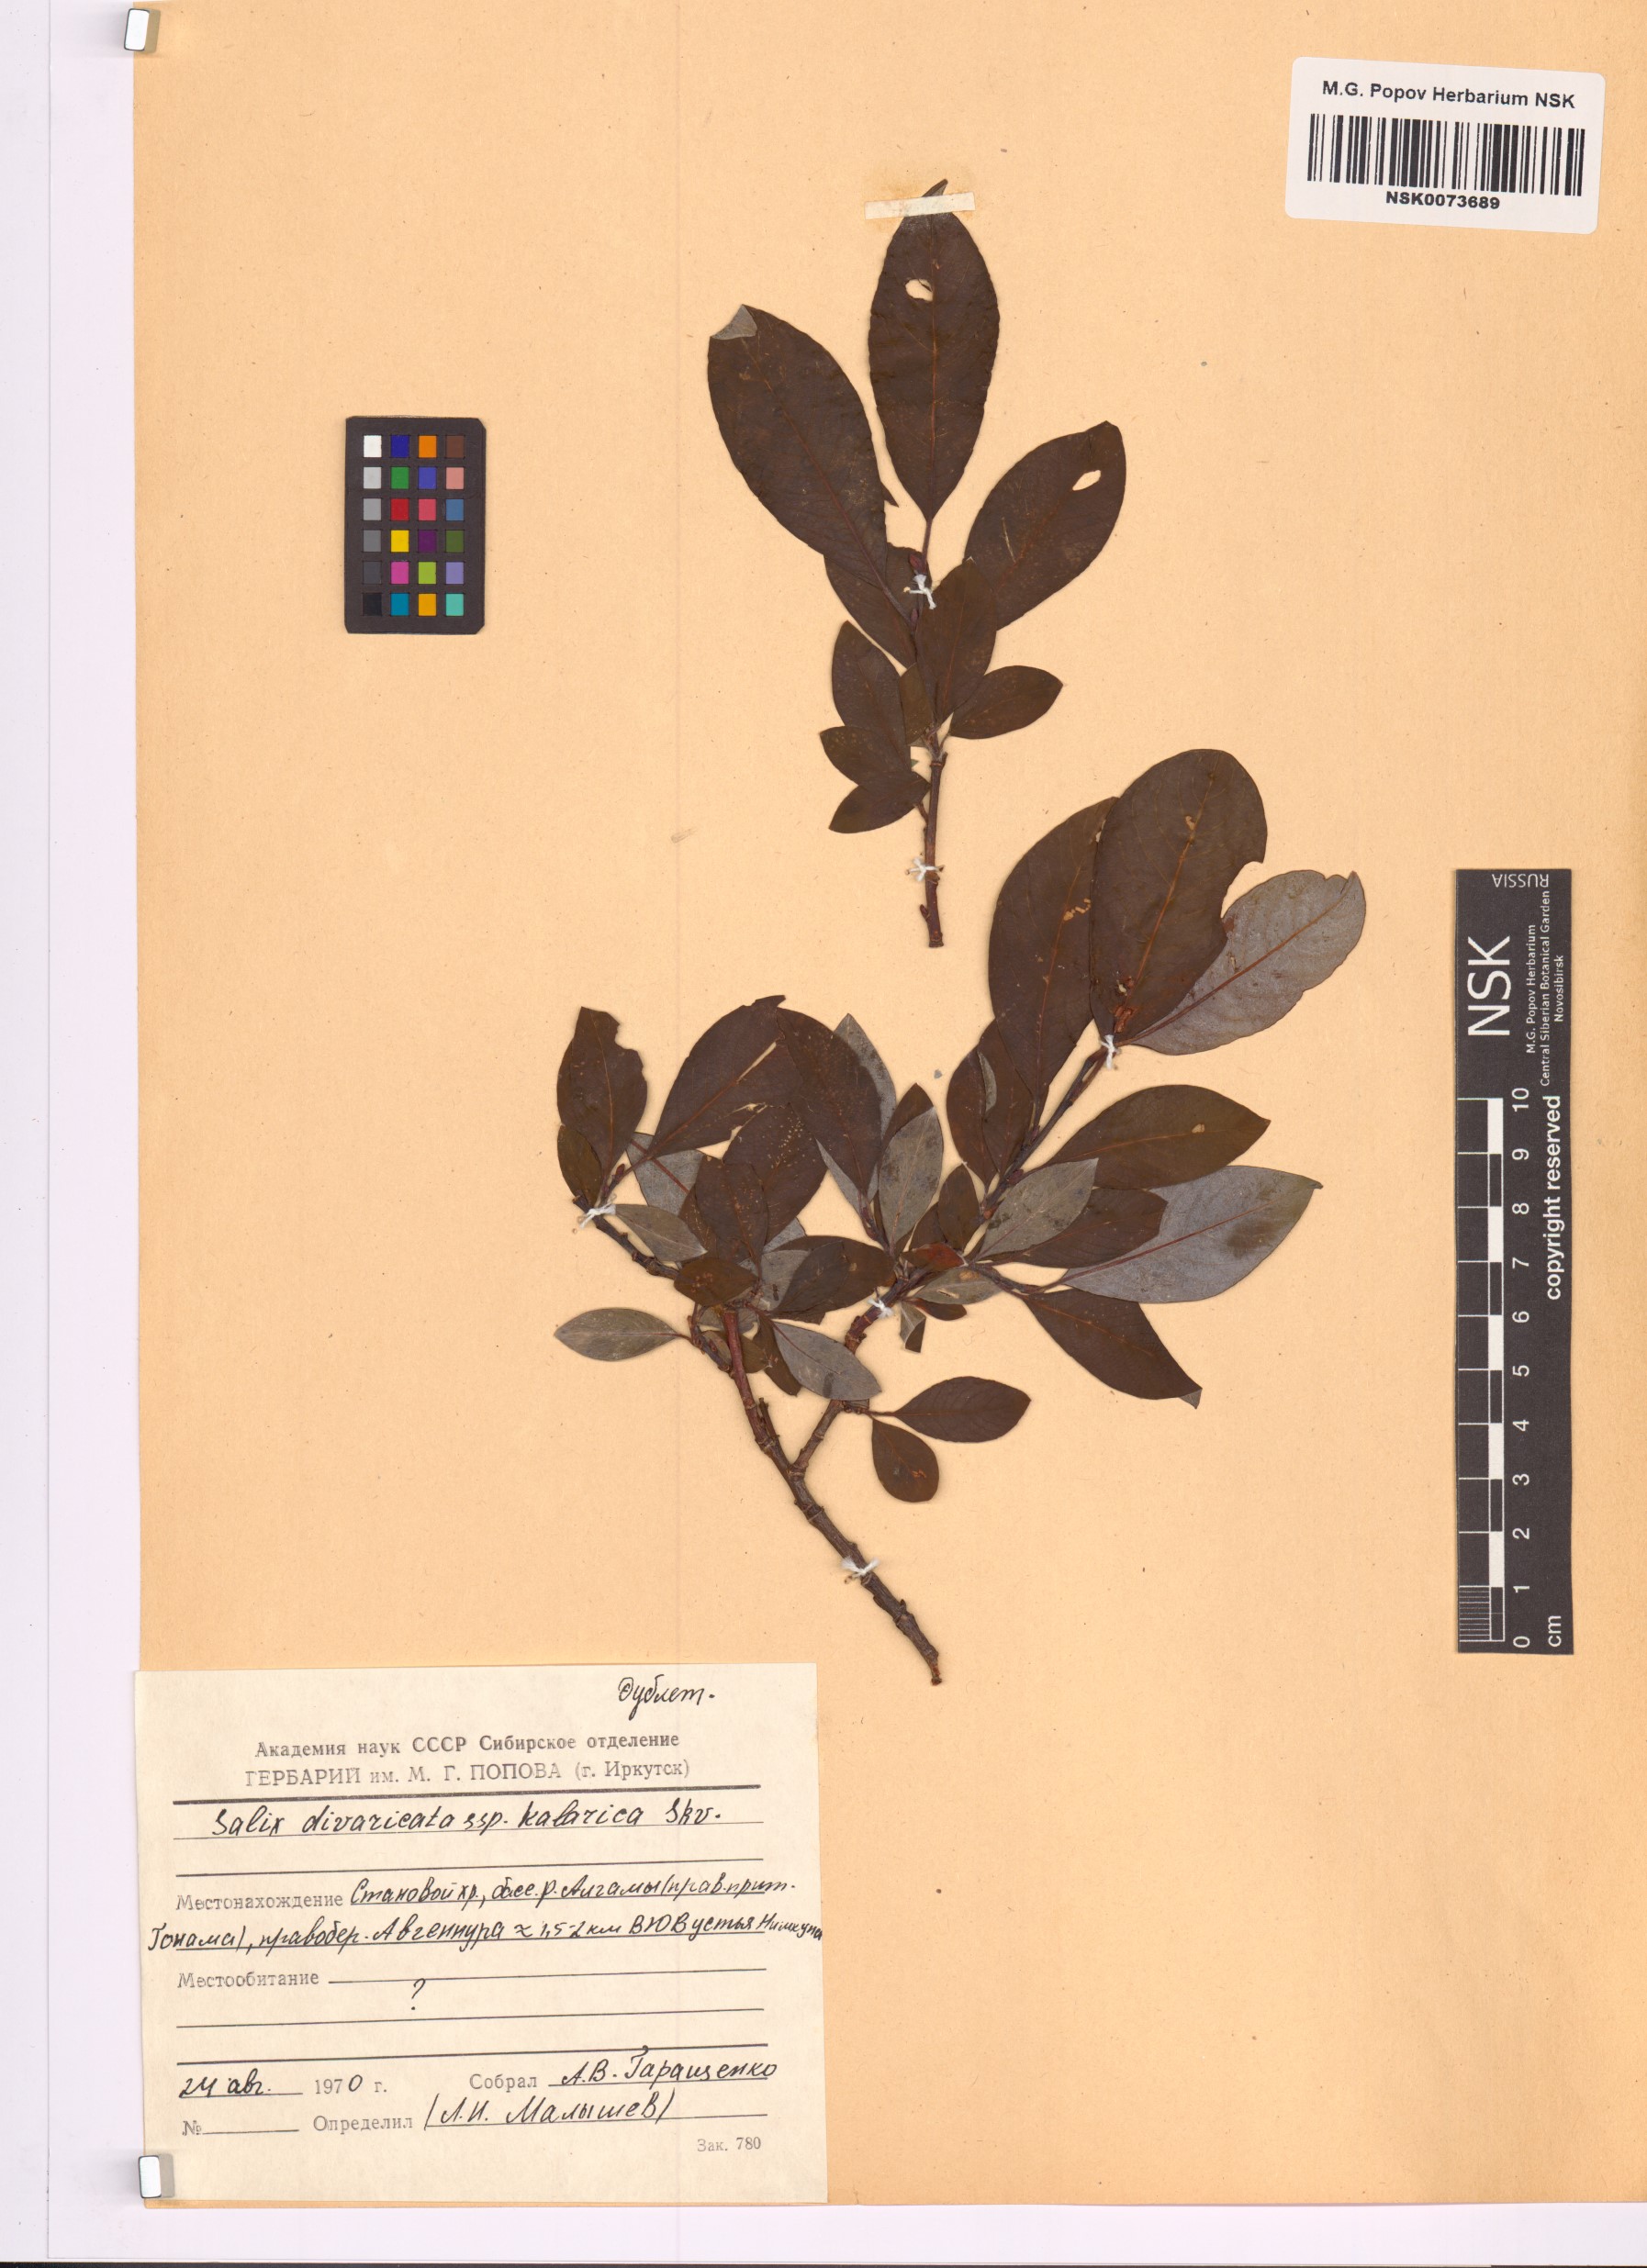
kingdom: Plantae
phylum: Tracheophyta
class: Magnoliopsida
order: Malpighiales
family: Salicaceae
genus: Salix
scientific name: Salix kalarica
